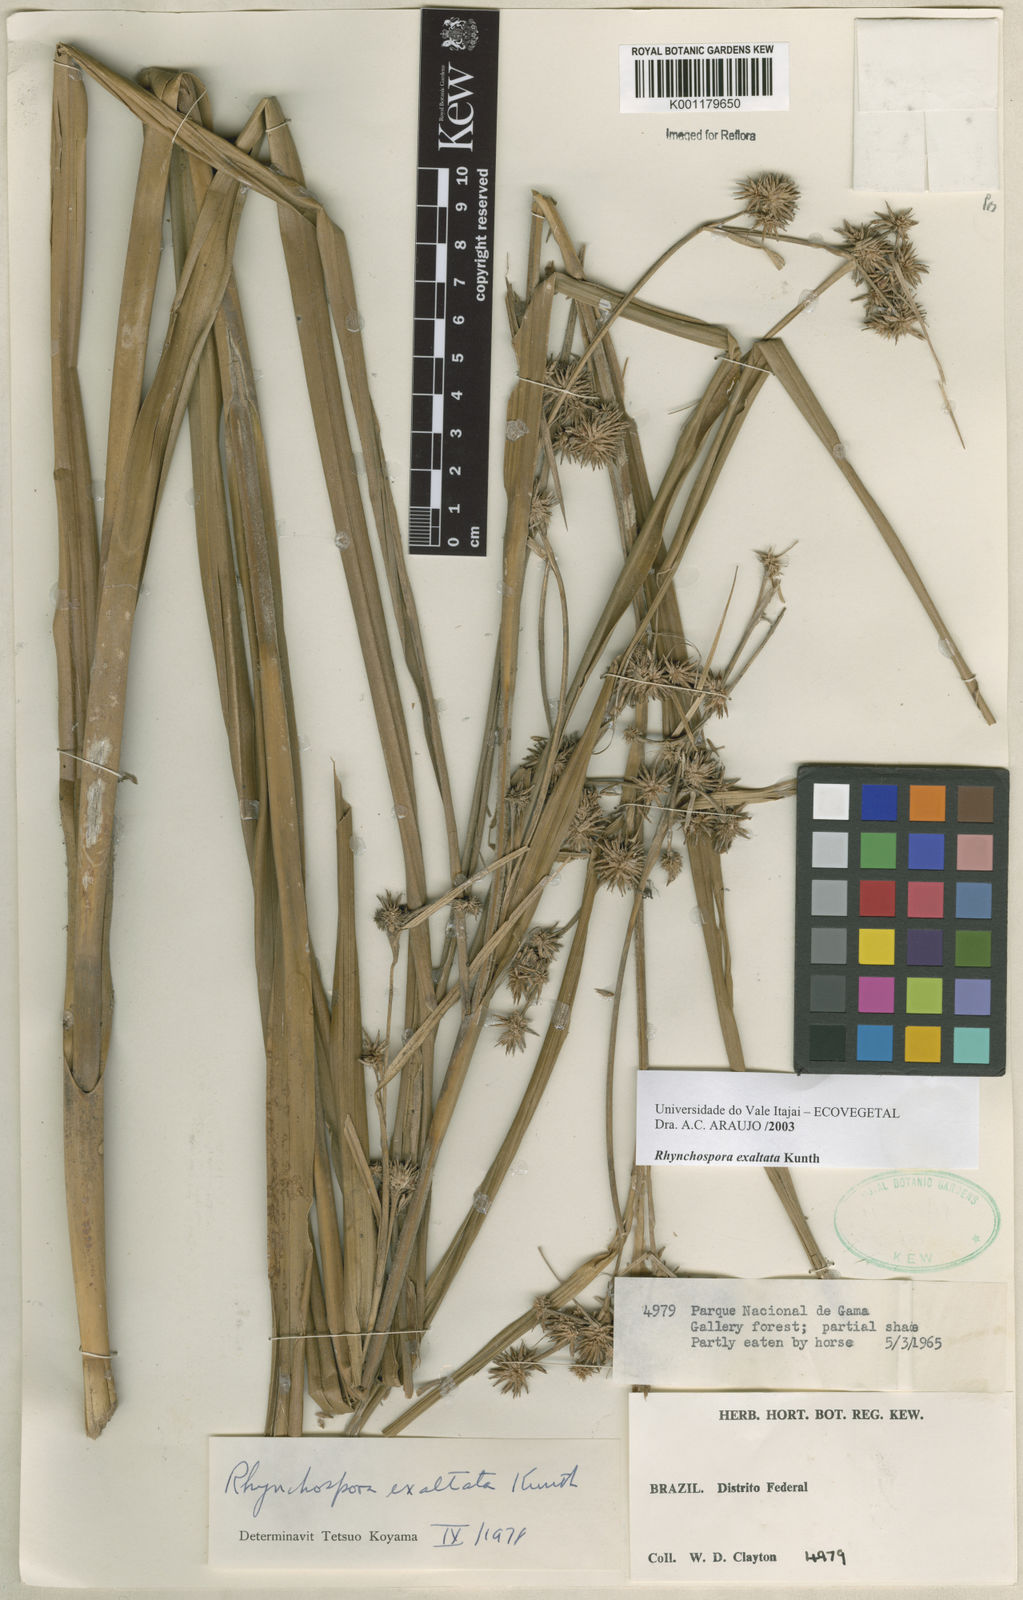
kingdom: Plantae
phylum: Tracheophyta
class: Liliopsida
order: Poales
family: Cyperaceae
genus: Rhynchospora
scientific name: Rhynchospora exaltata
